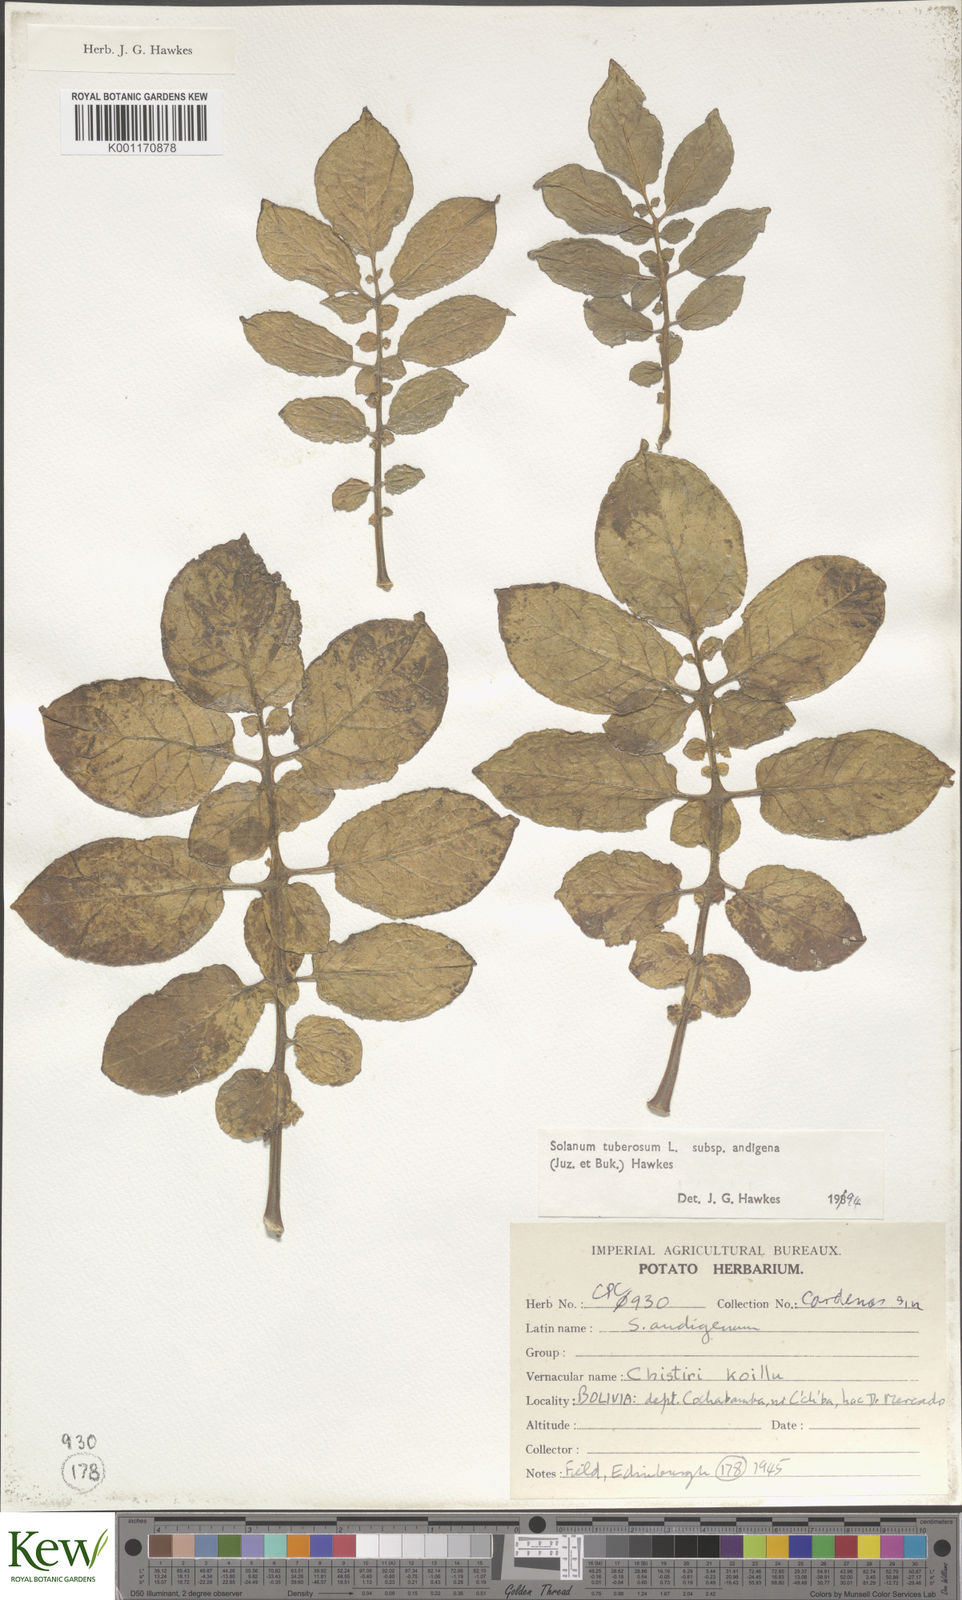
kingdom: Plantae
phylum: Tracheophyta
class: Magnoliopsida
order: Solanales
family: Solanaceae
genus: Solanum
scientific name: Solanum tuberosum
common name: Potato
